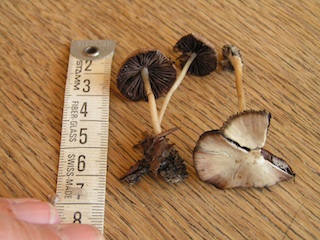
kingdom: Fungi
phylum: Basidiomycota
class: Agaricomycetes
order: Agaricales
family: Psathyrellaceae
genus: Psathyrella
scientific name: Psathyrella corrugis
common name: rødægget mørkhat
